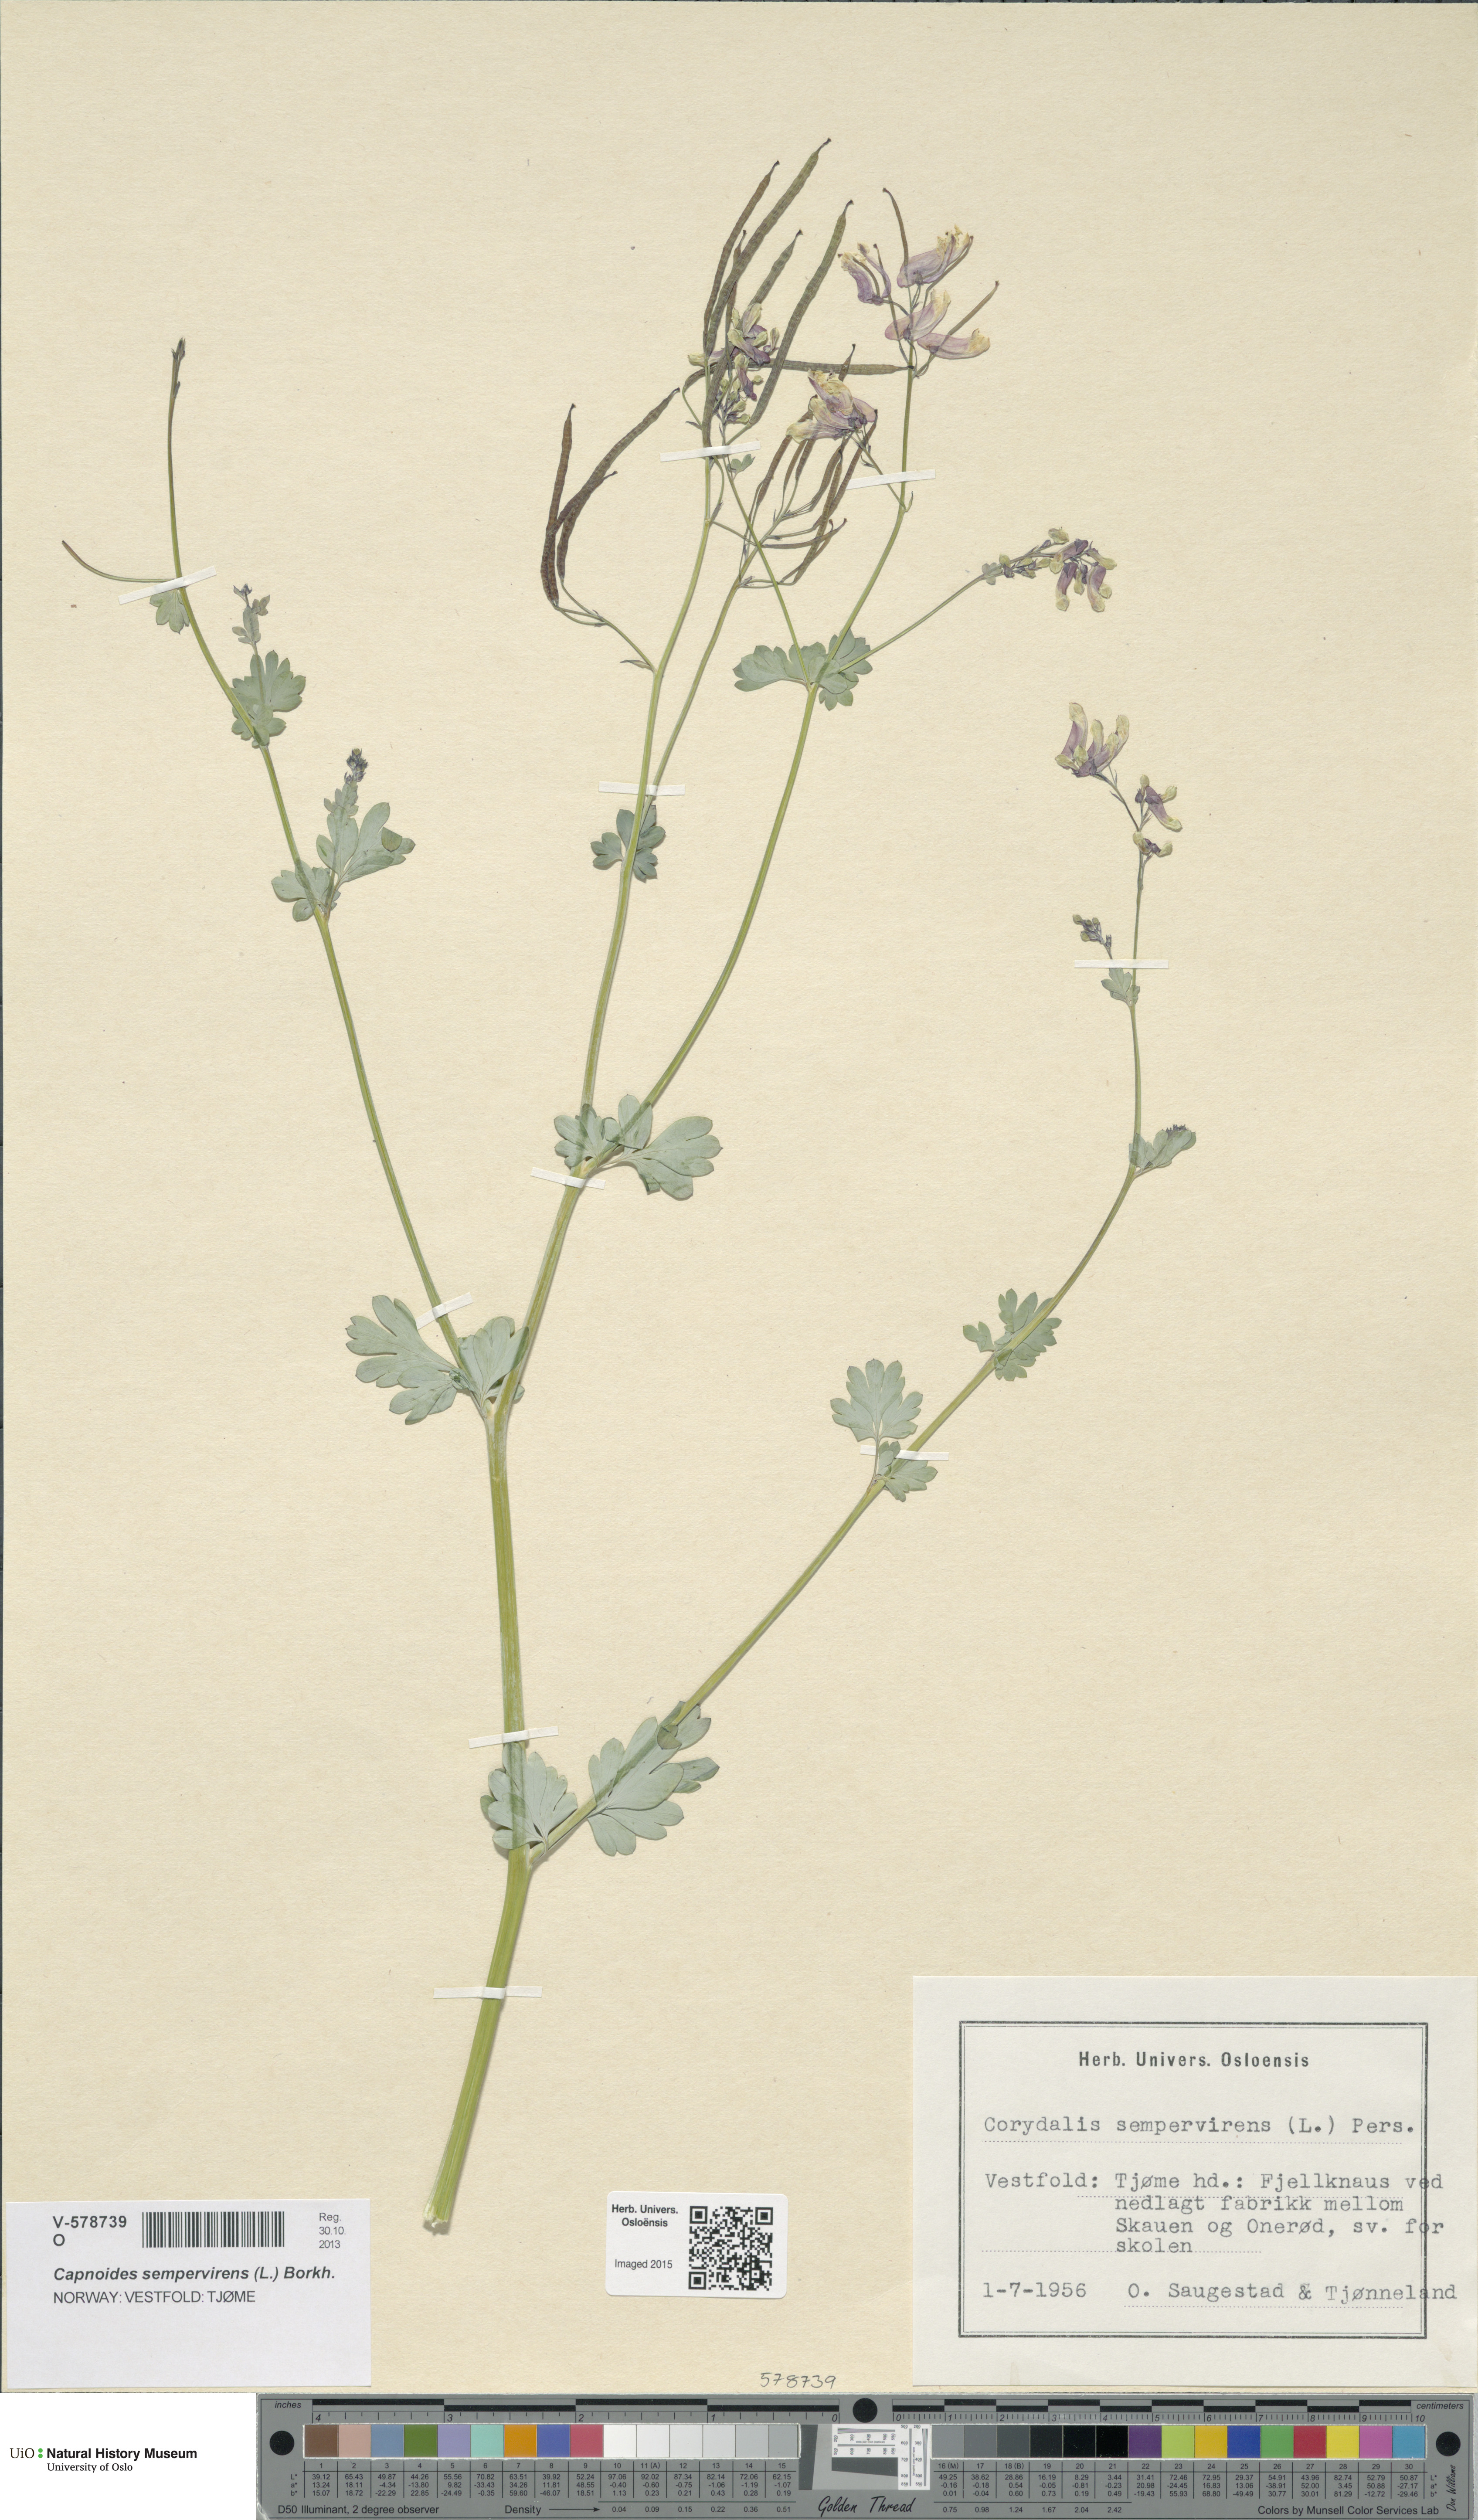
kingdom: Plantae
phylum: Tracheophyta
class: Magnoliopsida
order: Ranunculales
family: Papaveraceae
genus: Capnoides
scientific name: Capnoides sempervirens
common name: Rock harlequin
